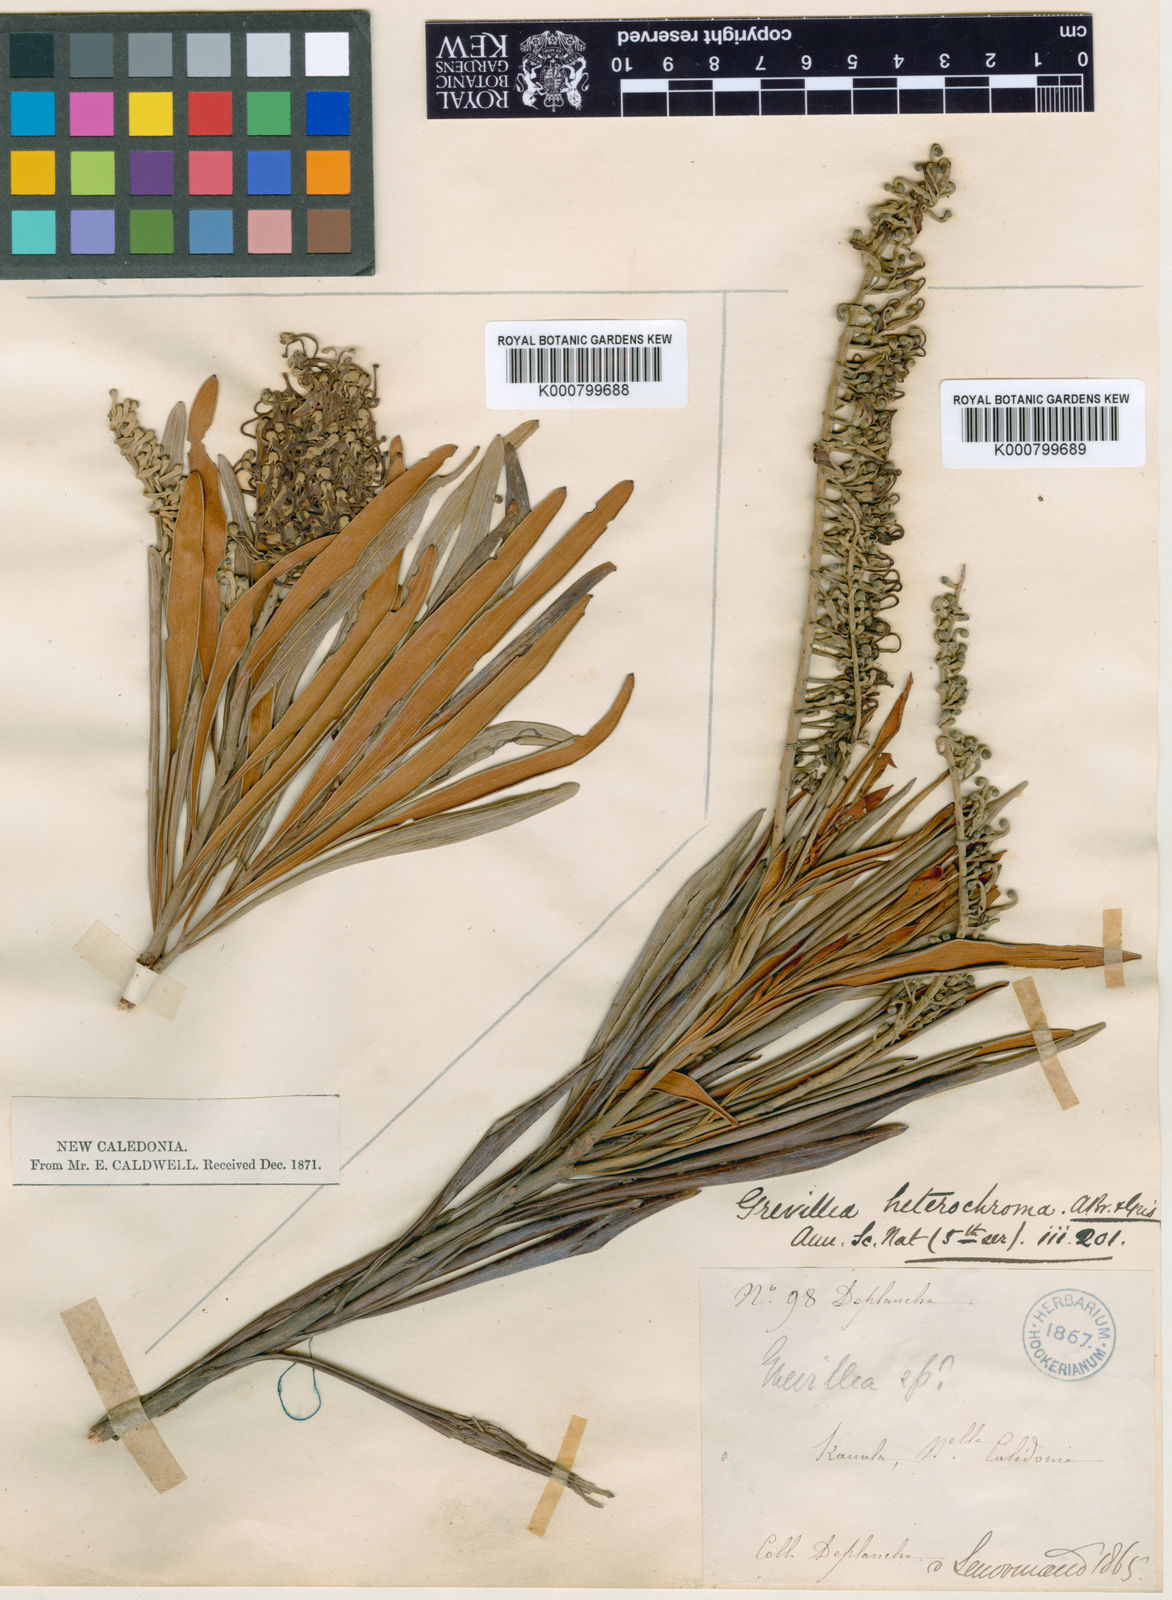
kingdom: Plantae
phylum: Tracheophyta
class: Magnoliopsida
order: Proteales
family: Proteaceae
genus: Grevillea
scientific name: Grevillea exul
